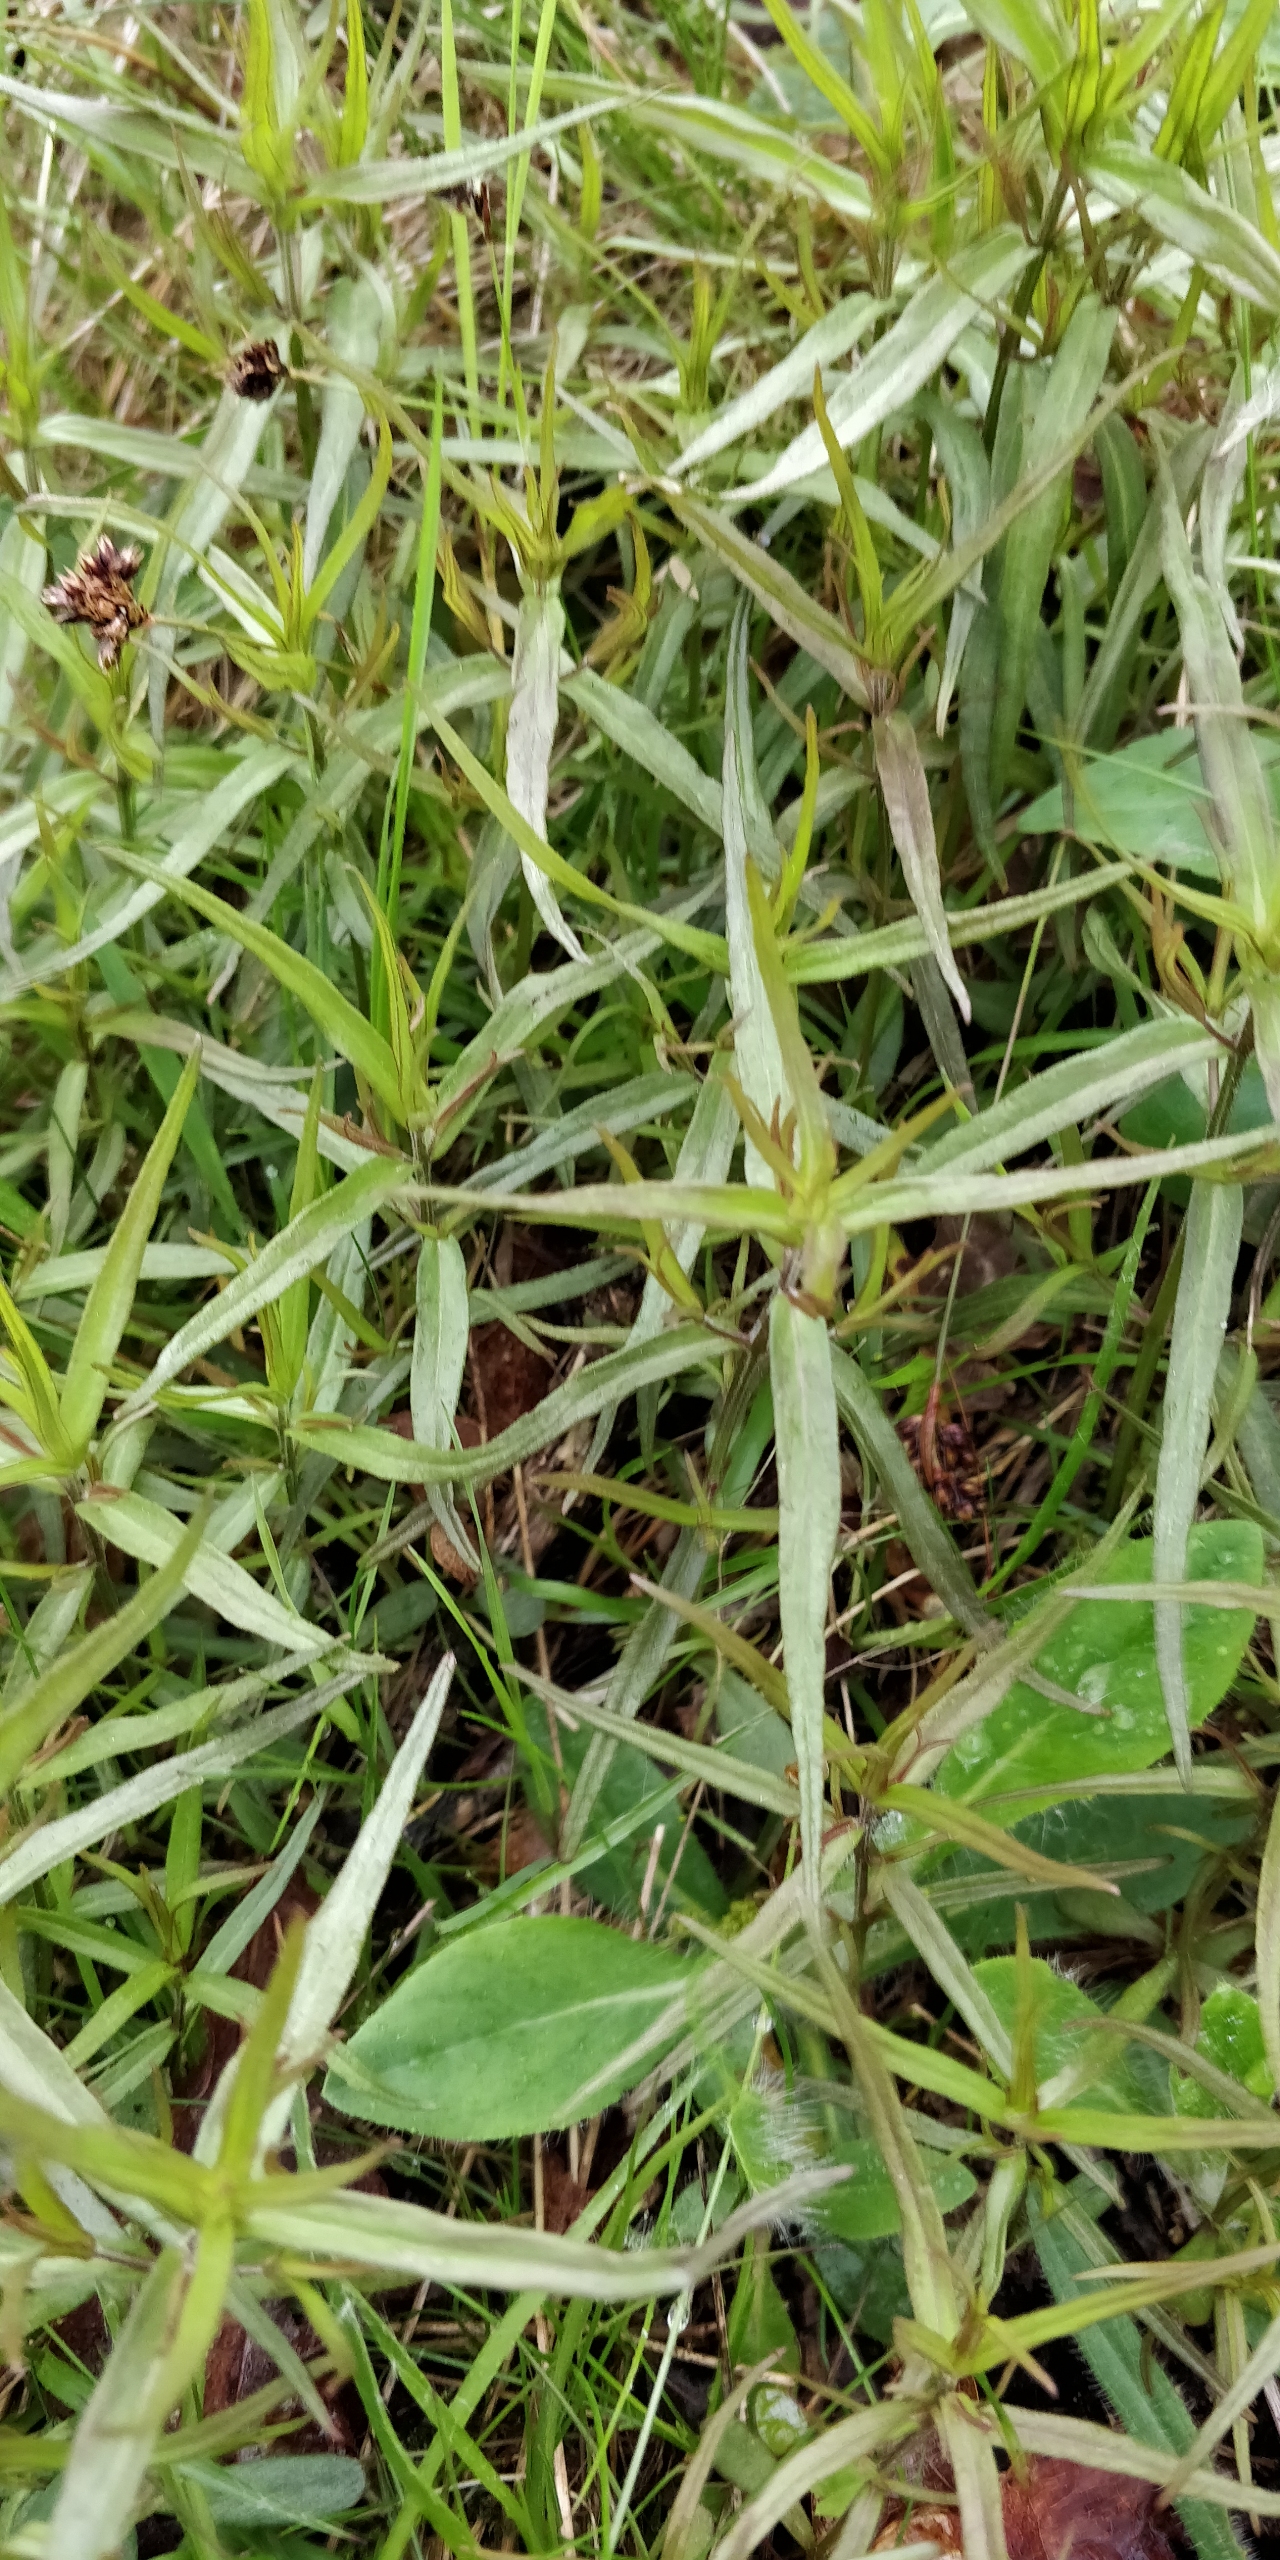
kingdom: Plantae
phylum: Tracheophyta
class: Magnoliopsida
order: Lamiales
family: Orobanchaceae
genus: Melampyrum
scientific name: Melampyrum cristatum
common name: Kantet kohvede
